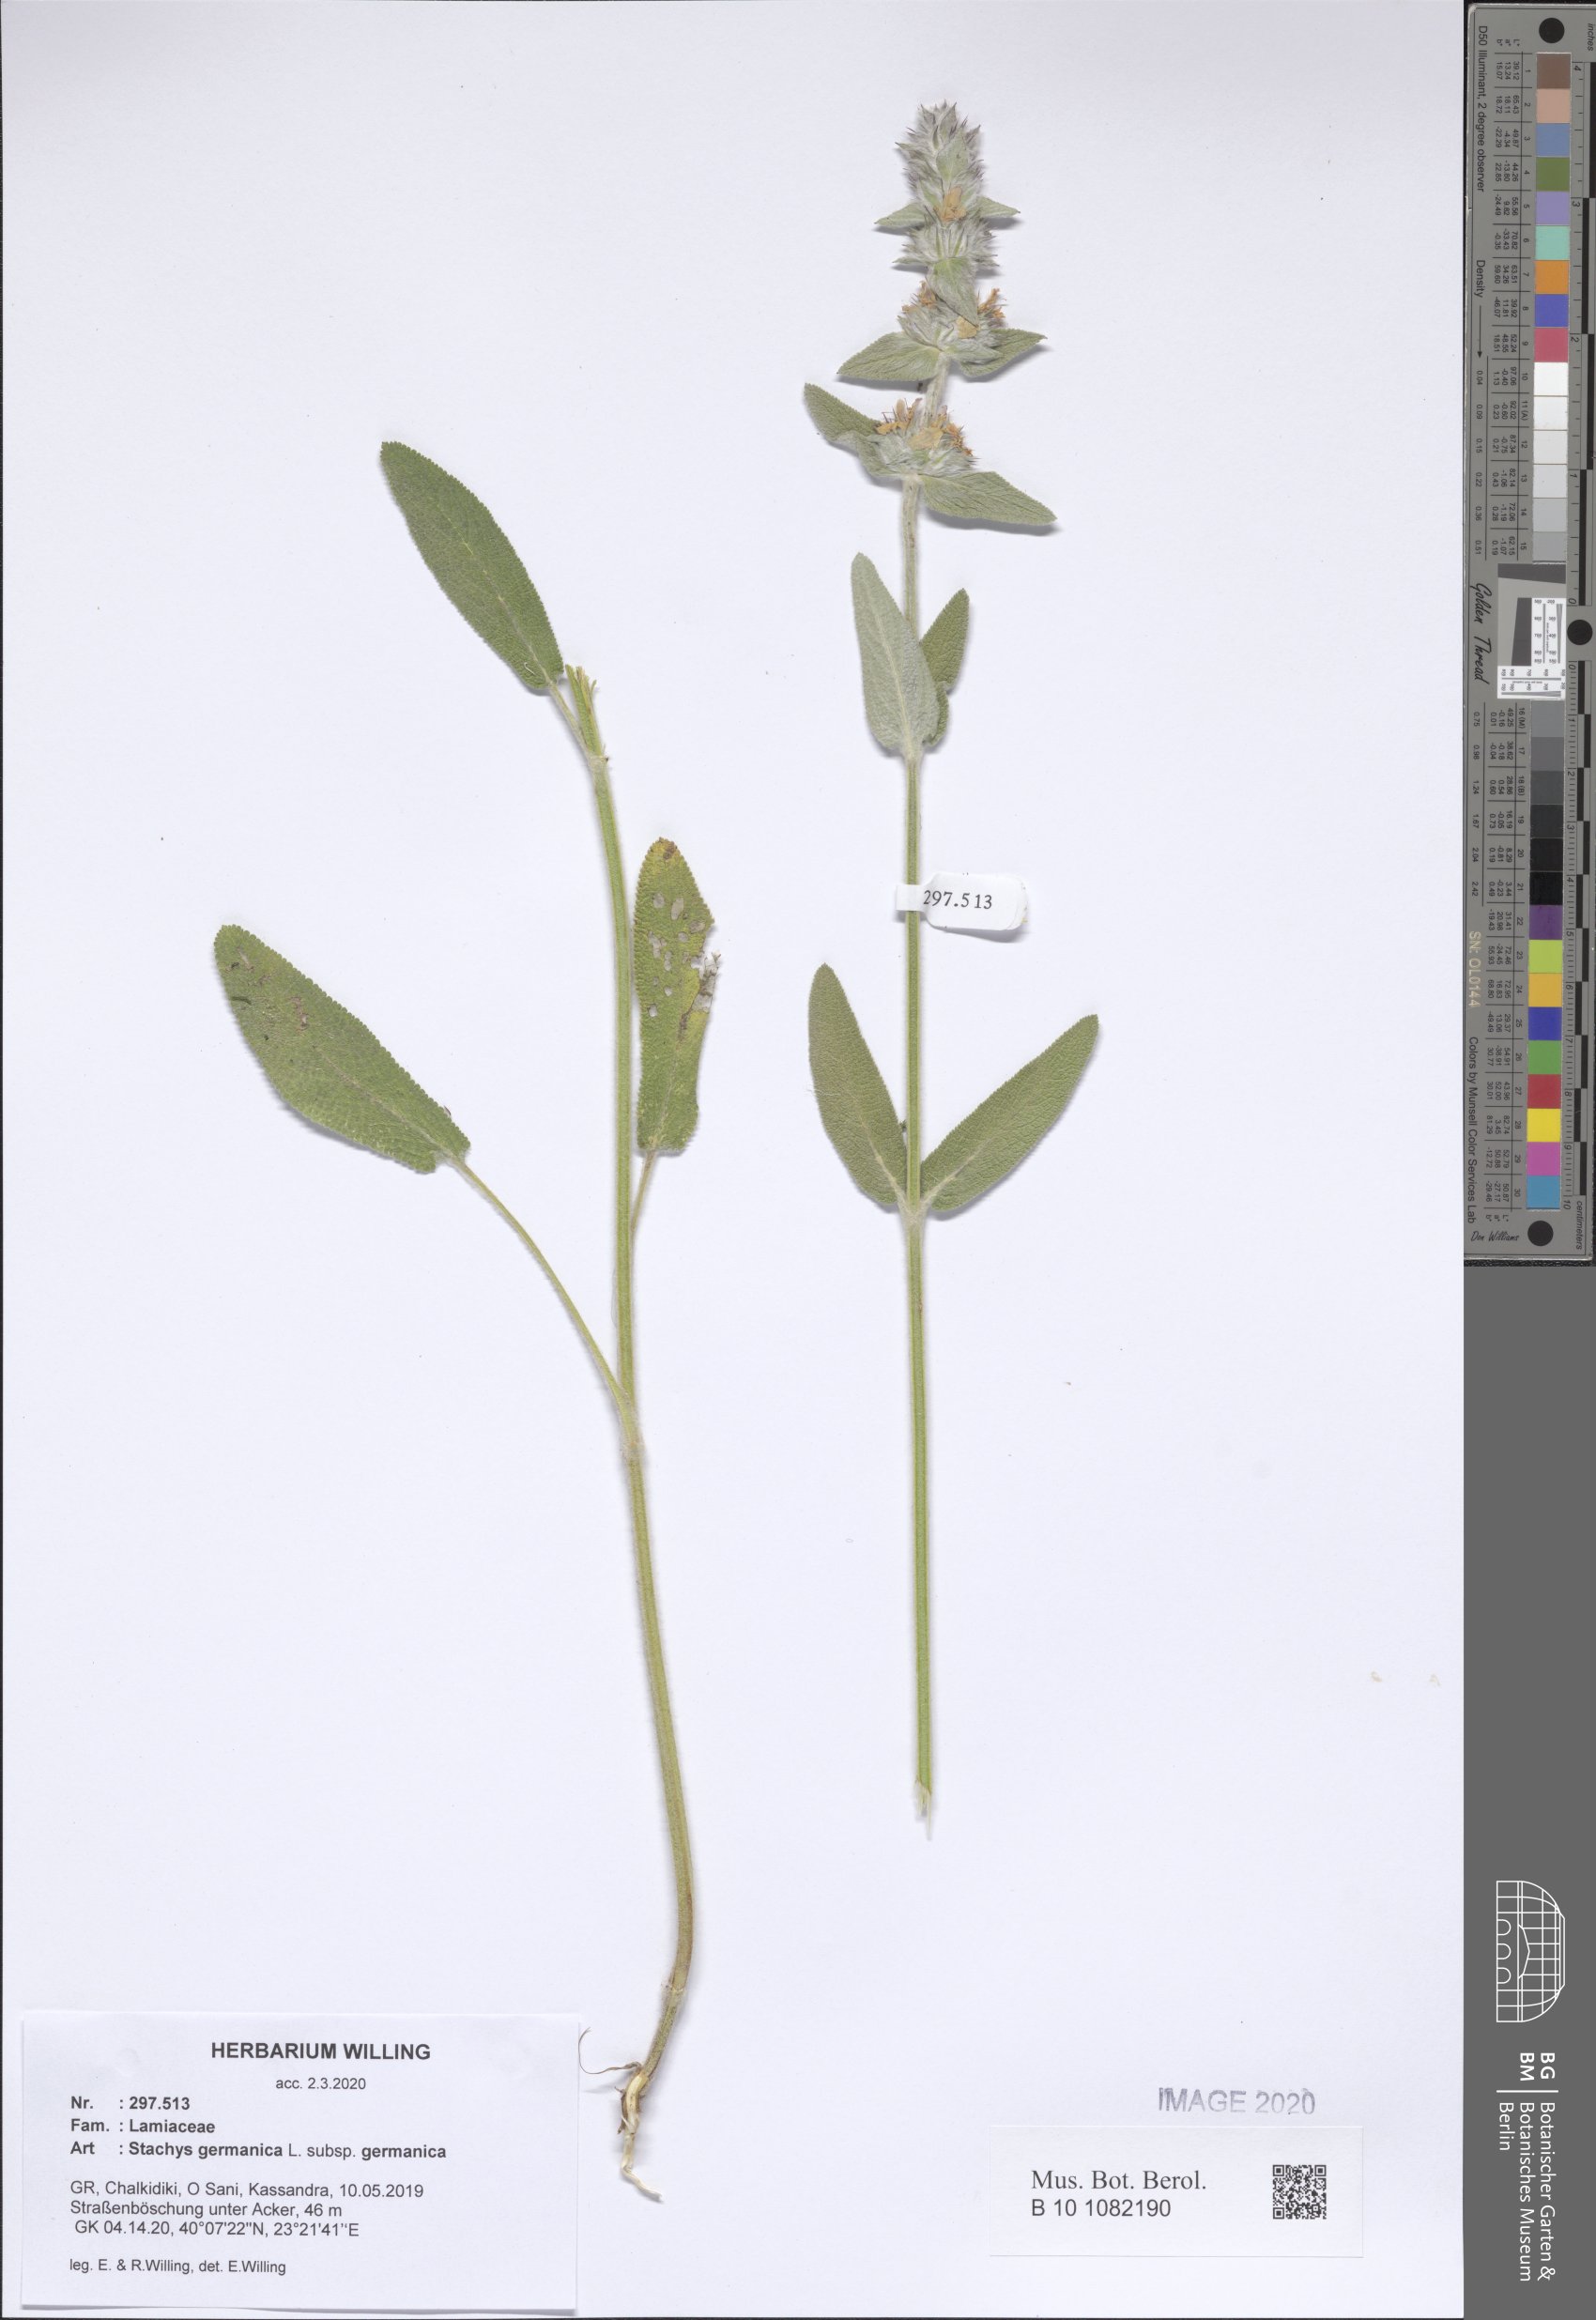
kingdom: Plantae
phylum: Tracheophyta
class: Magnoliopsida
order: Lamiales
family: Lamiaceae
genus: Stachys
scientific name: Stachys germanica
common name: Downy woundwort
